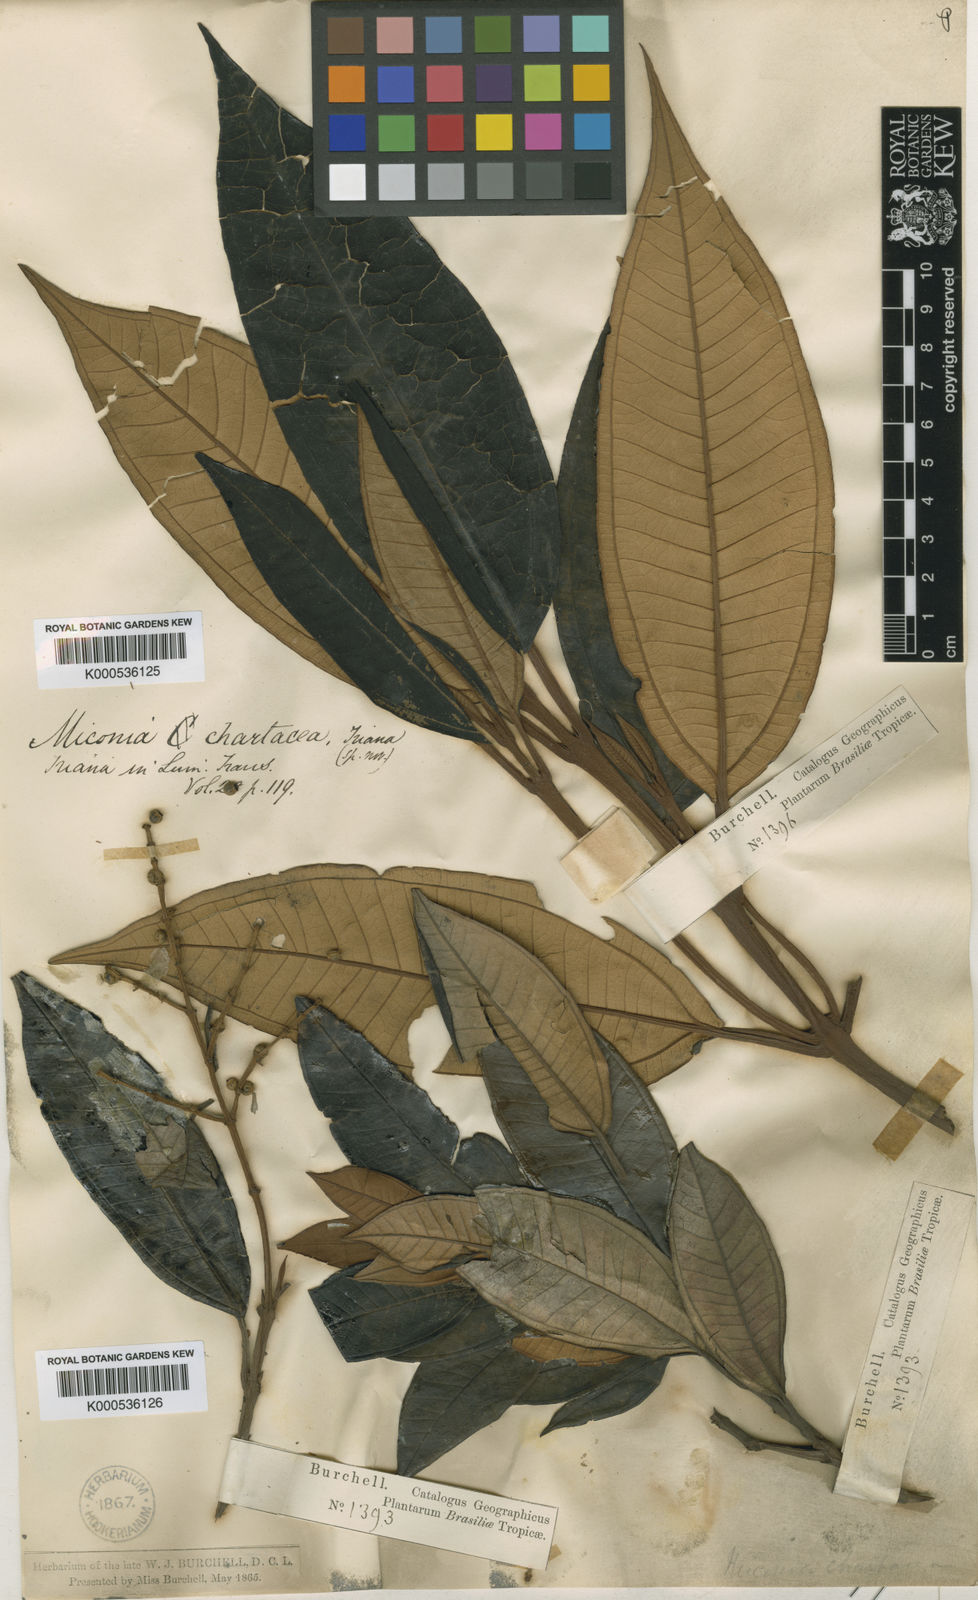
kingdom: Plantae
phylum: Tracheophyta
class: Magnoliopsida
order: Myrtales
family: Melastomataceae
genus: Miconia
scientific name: Miconia chartacea
